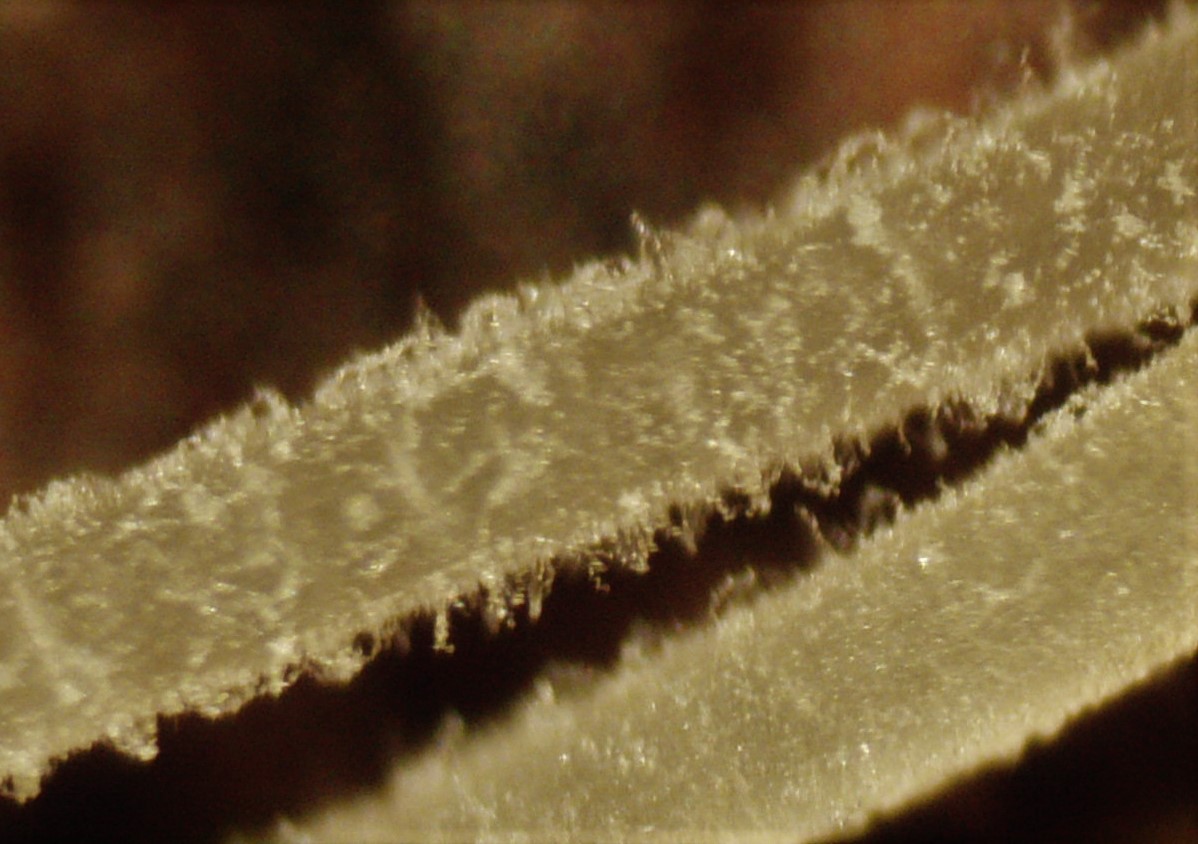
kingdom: Fungi
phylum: Basidiomycota
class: Agaricomycetes
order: Agaricales
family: Mycenaceae
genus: Hemimycena
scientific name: Hemimycena tortuosa
